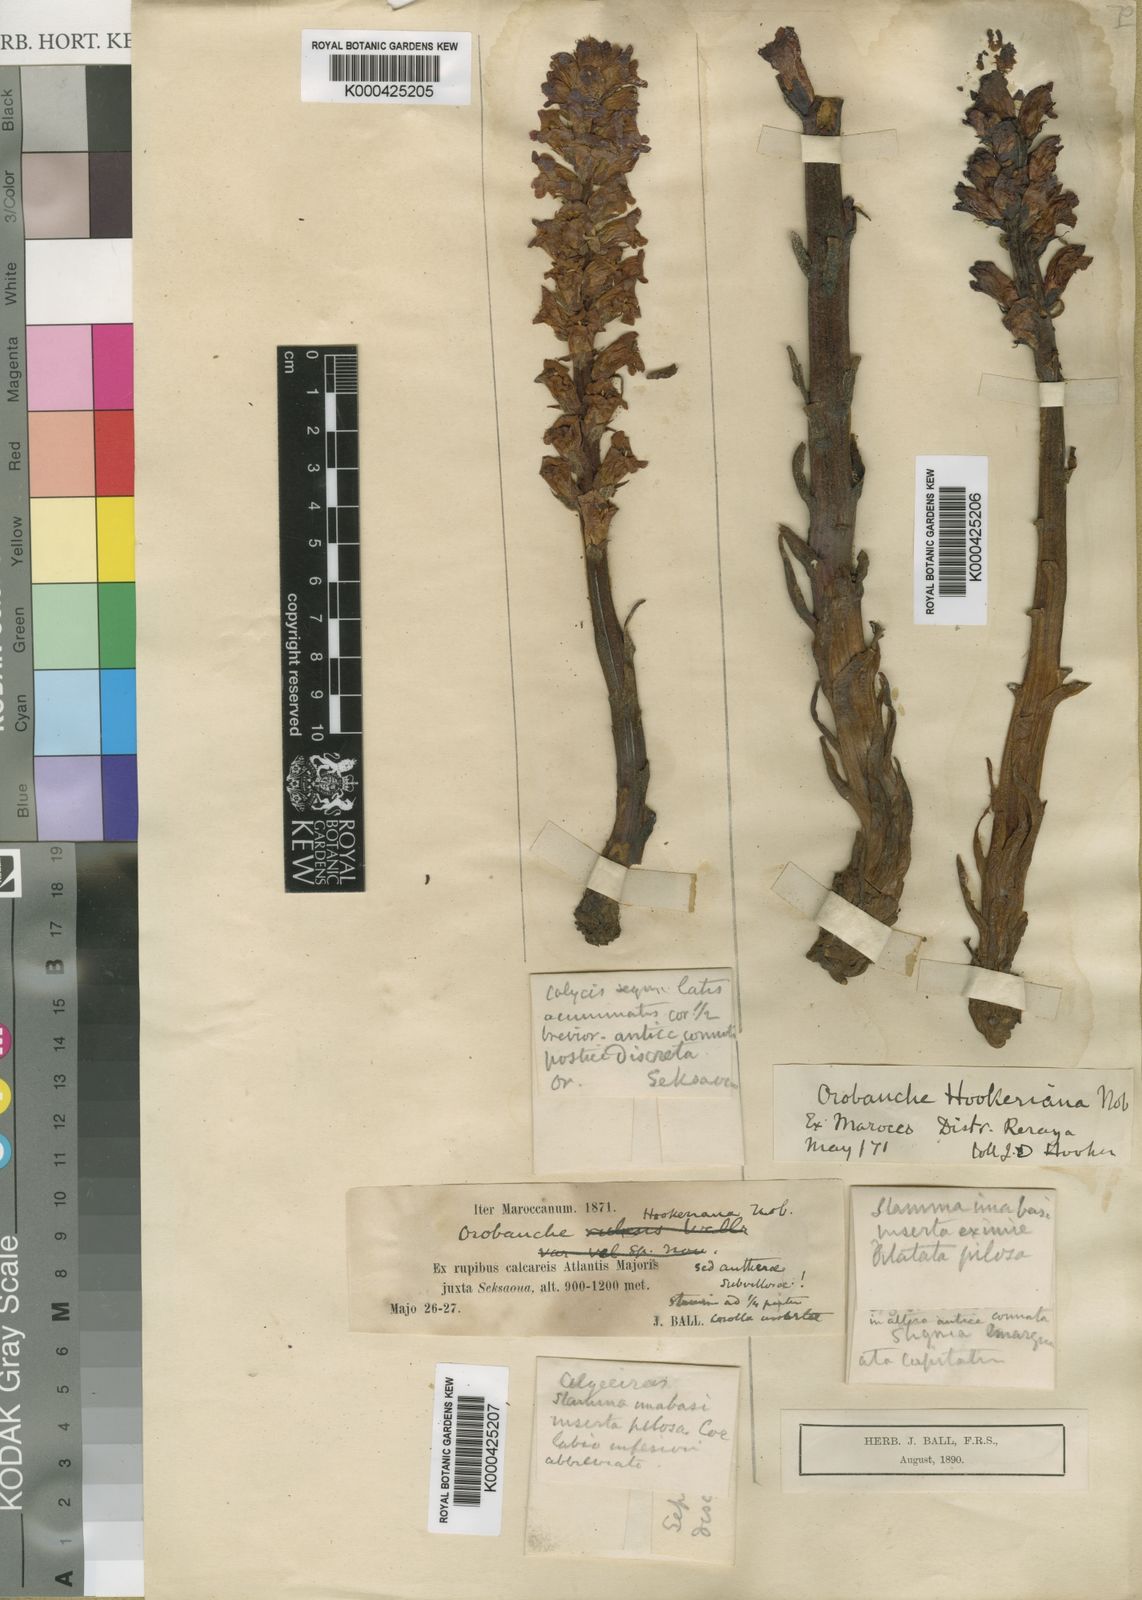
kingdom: Plantae
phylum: Tracheophyta
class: Magnoliopsida
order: Lamiales
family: Orobanchaceae
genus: Orobanche
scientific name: Orobanche foetida
